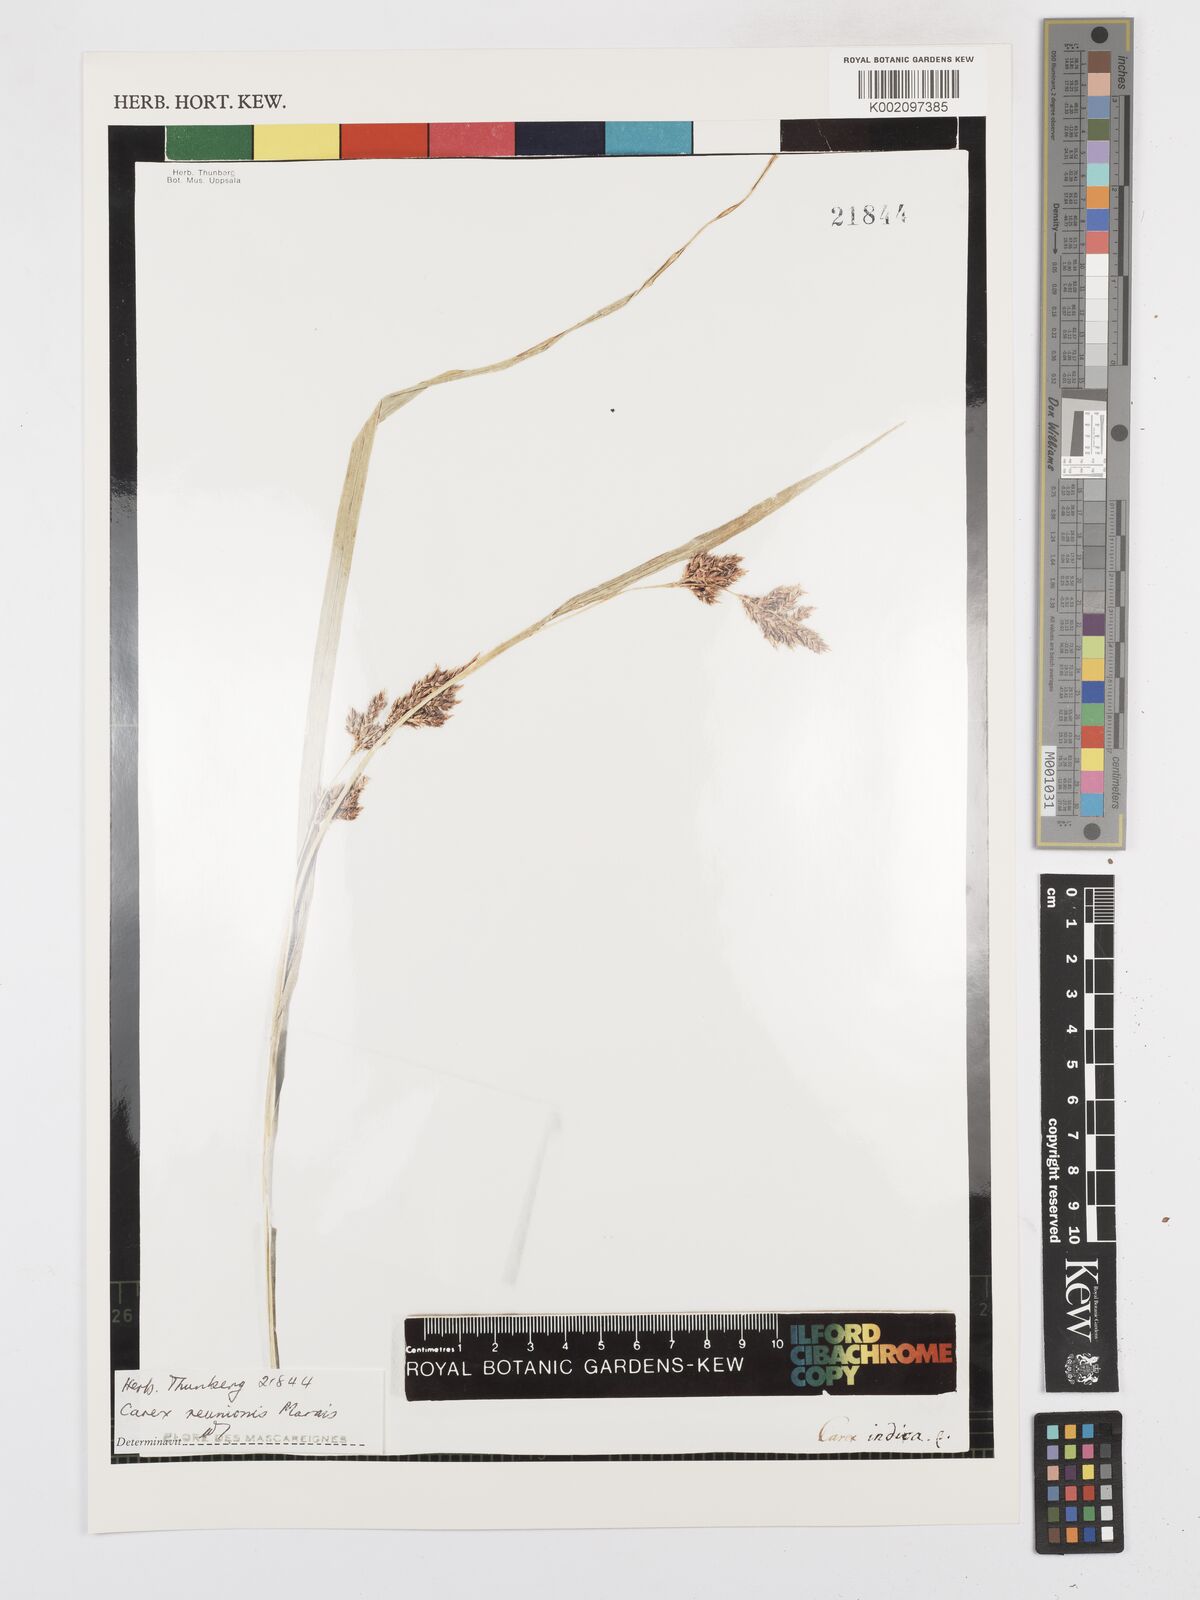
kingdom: Plantae
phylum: Tracheophyta
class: Liliopsida
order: Poales
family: Cyperaceae
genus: Carex
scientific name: Carex
